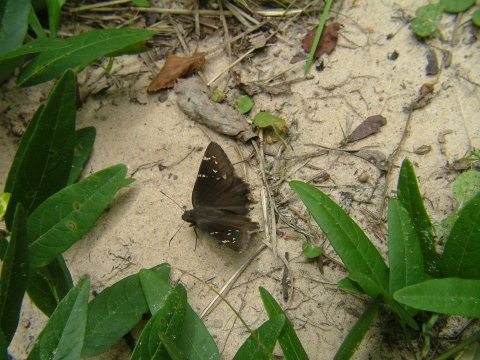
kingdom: Animalia
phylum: Arthropoda
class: Insecta
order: Lepidoptera
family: Hesperiidae
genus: Thorybes
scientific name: Thorybes mexicana
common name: Confused Cloudywing
